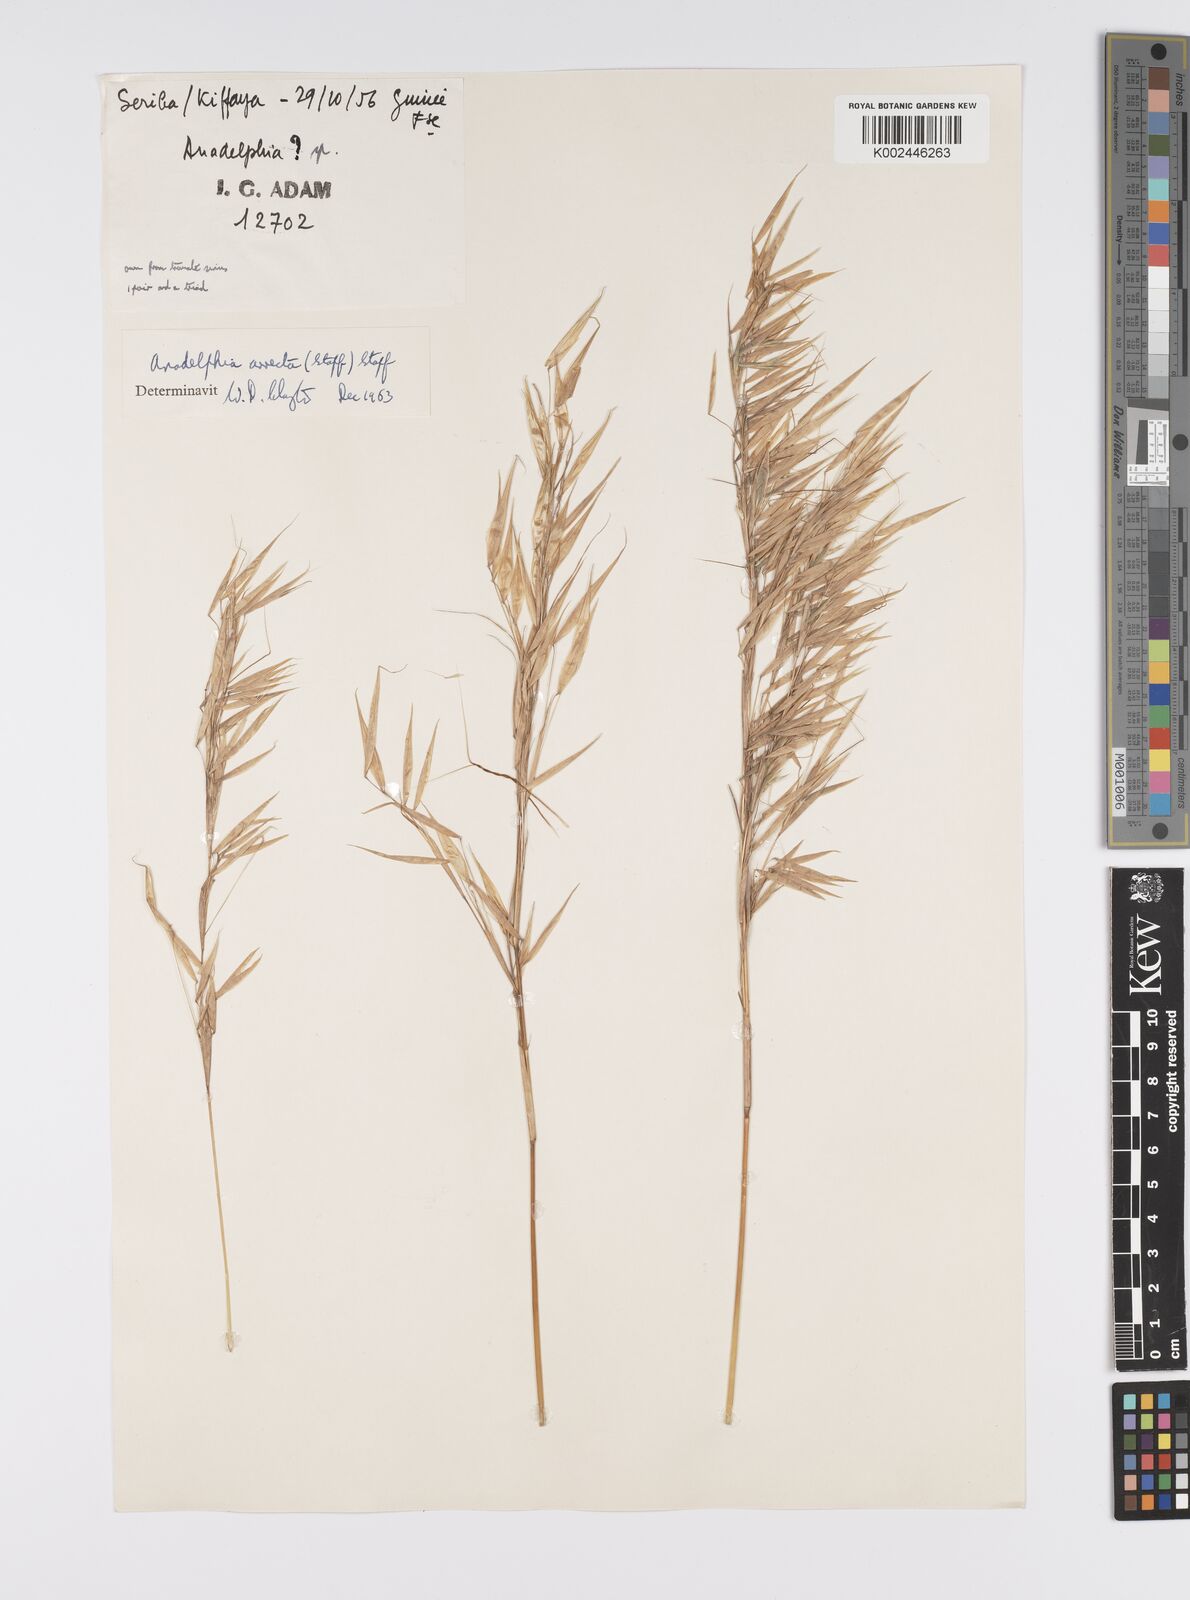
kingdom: Plantae
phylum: Tracheophyta
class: Liliopsida
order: Poales
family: Poaceae
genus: Anadelphia
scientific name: Anadelphia afzeliana
